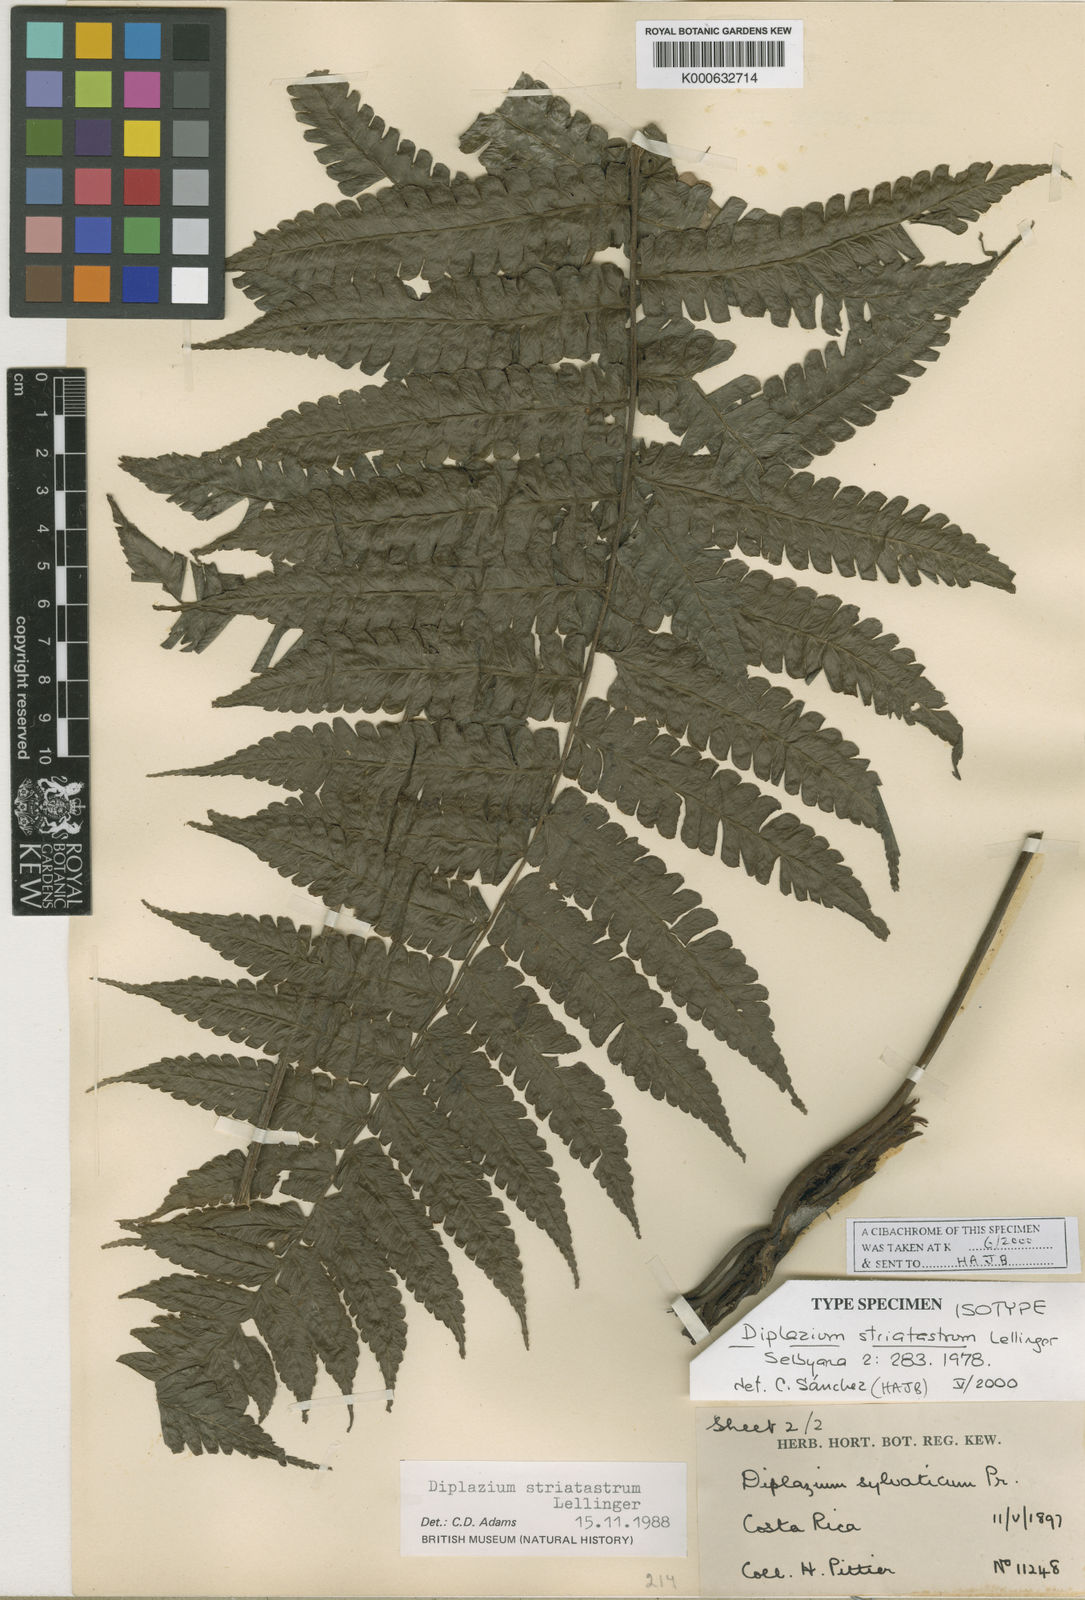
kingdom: Plantae
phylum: Tracheophyta
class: Polypodiopsida
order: Polypodiales
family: Athyriaceae
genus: Diplazium
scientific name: Diplazium striatastrum
